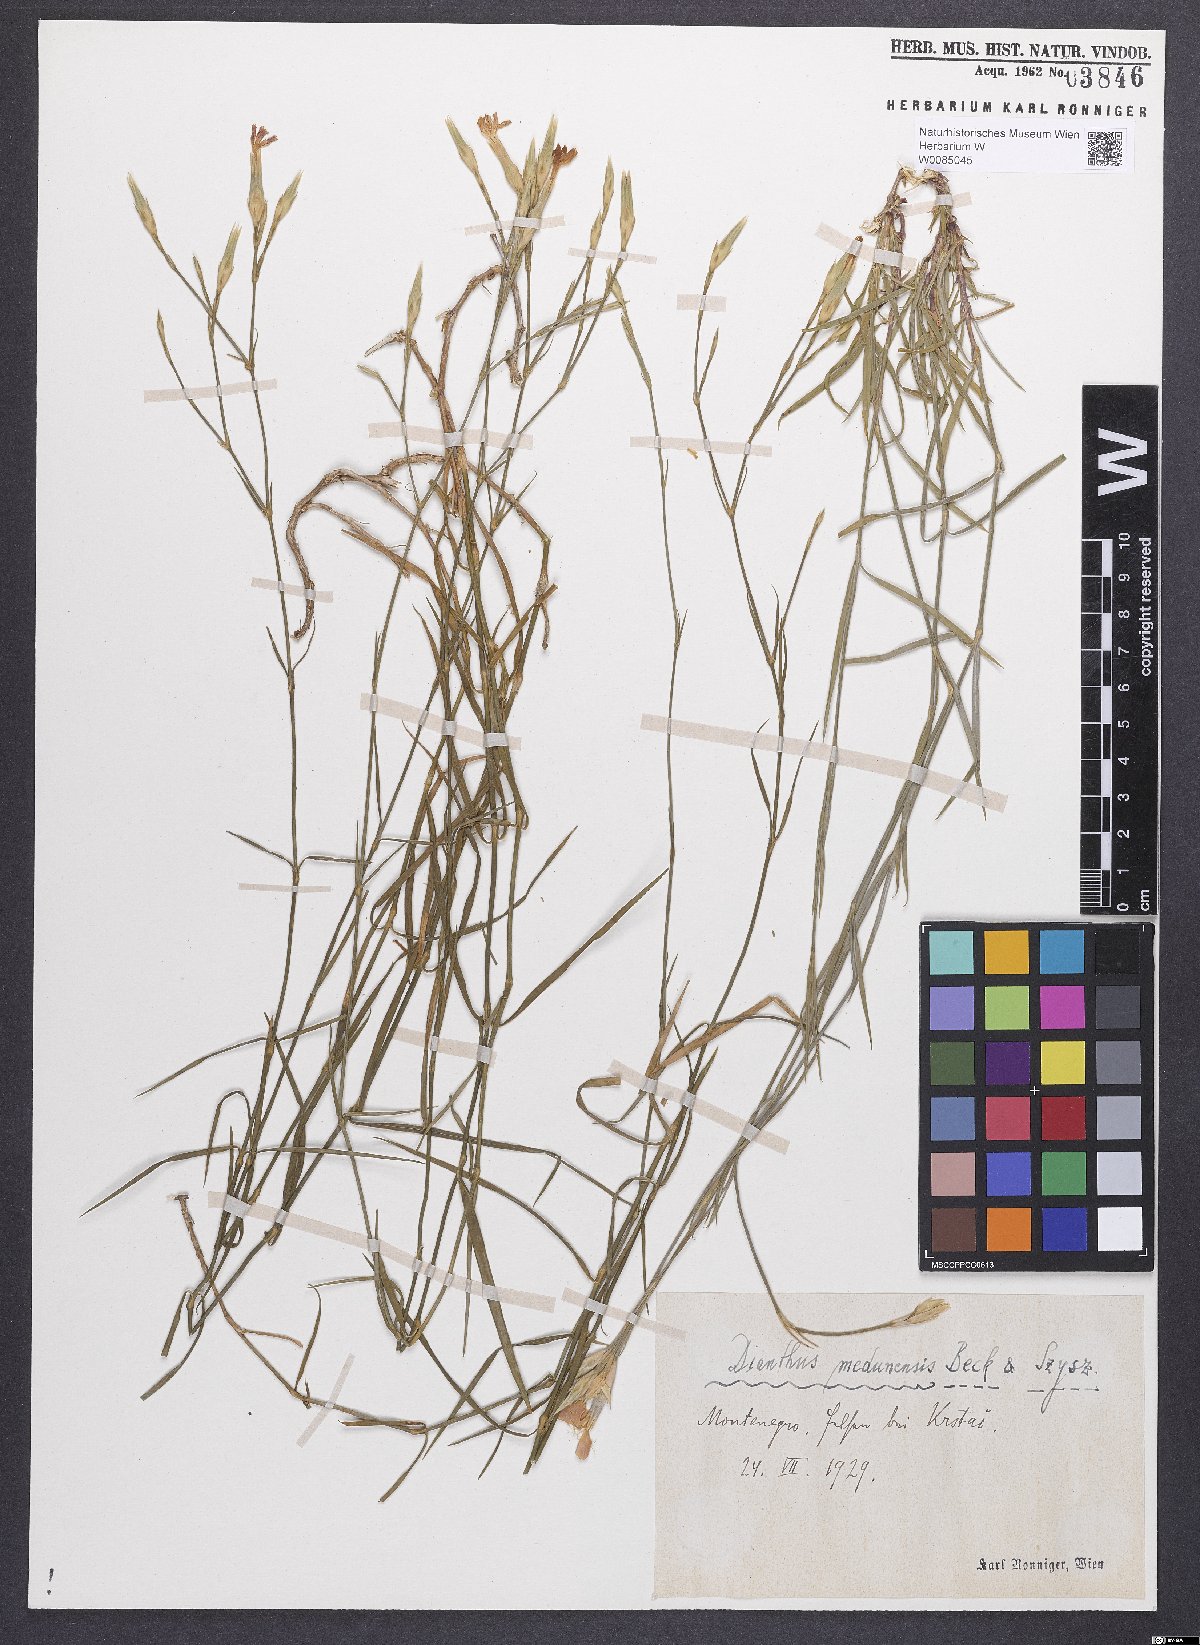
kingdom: Plantae
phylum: Tracheophyta
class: Magnoliopsida
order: Caryophyllales
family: Caryophyllaceae
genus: Dianthus
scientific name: Dianthus ciliatus
